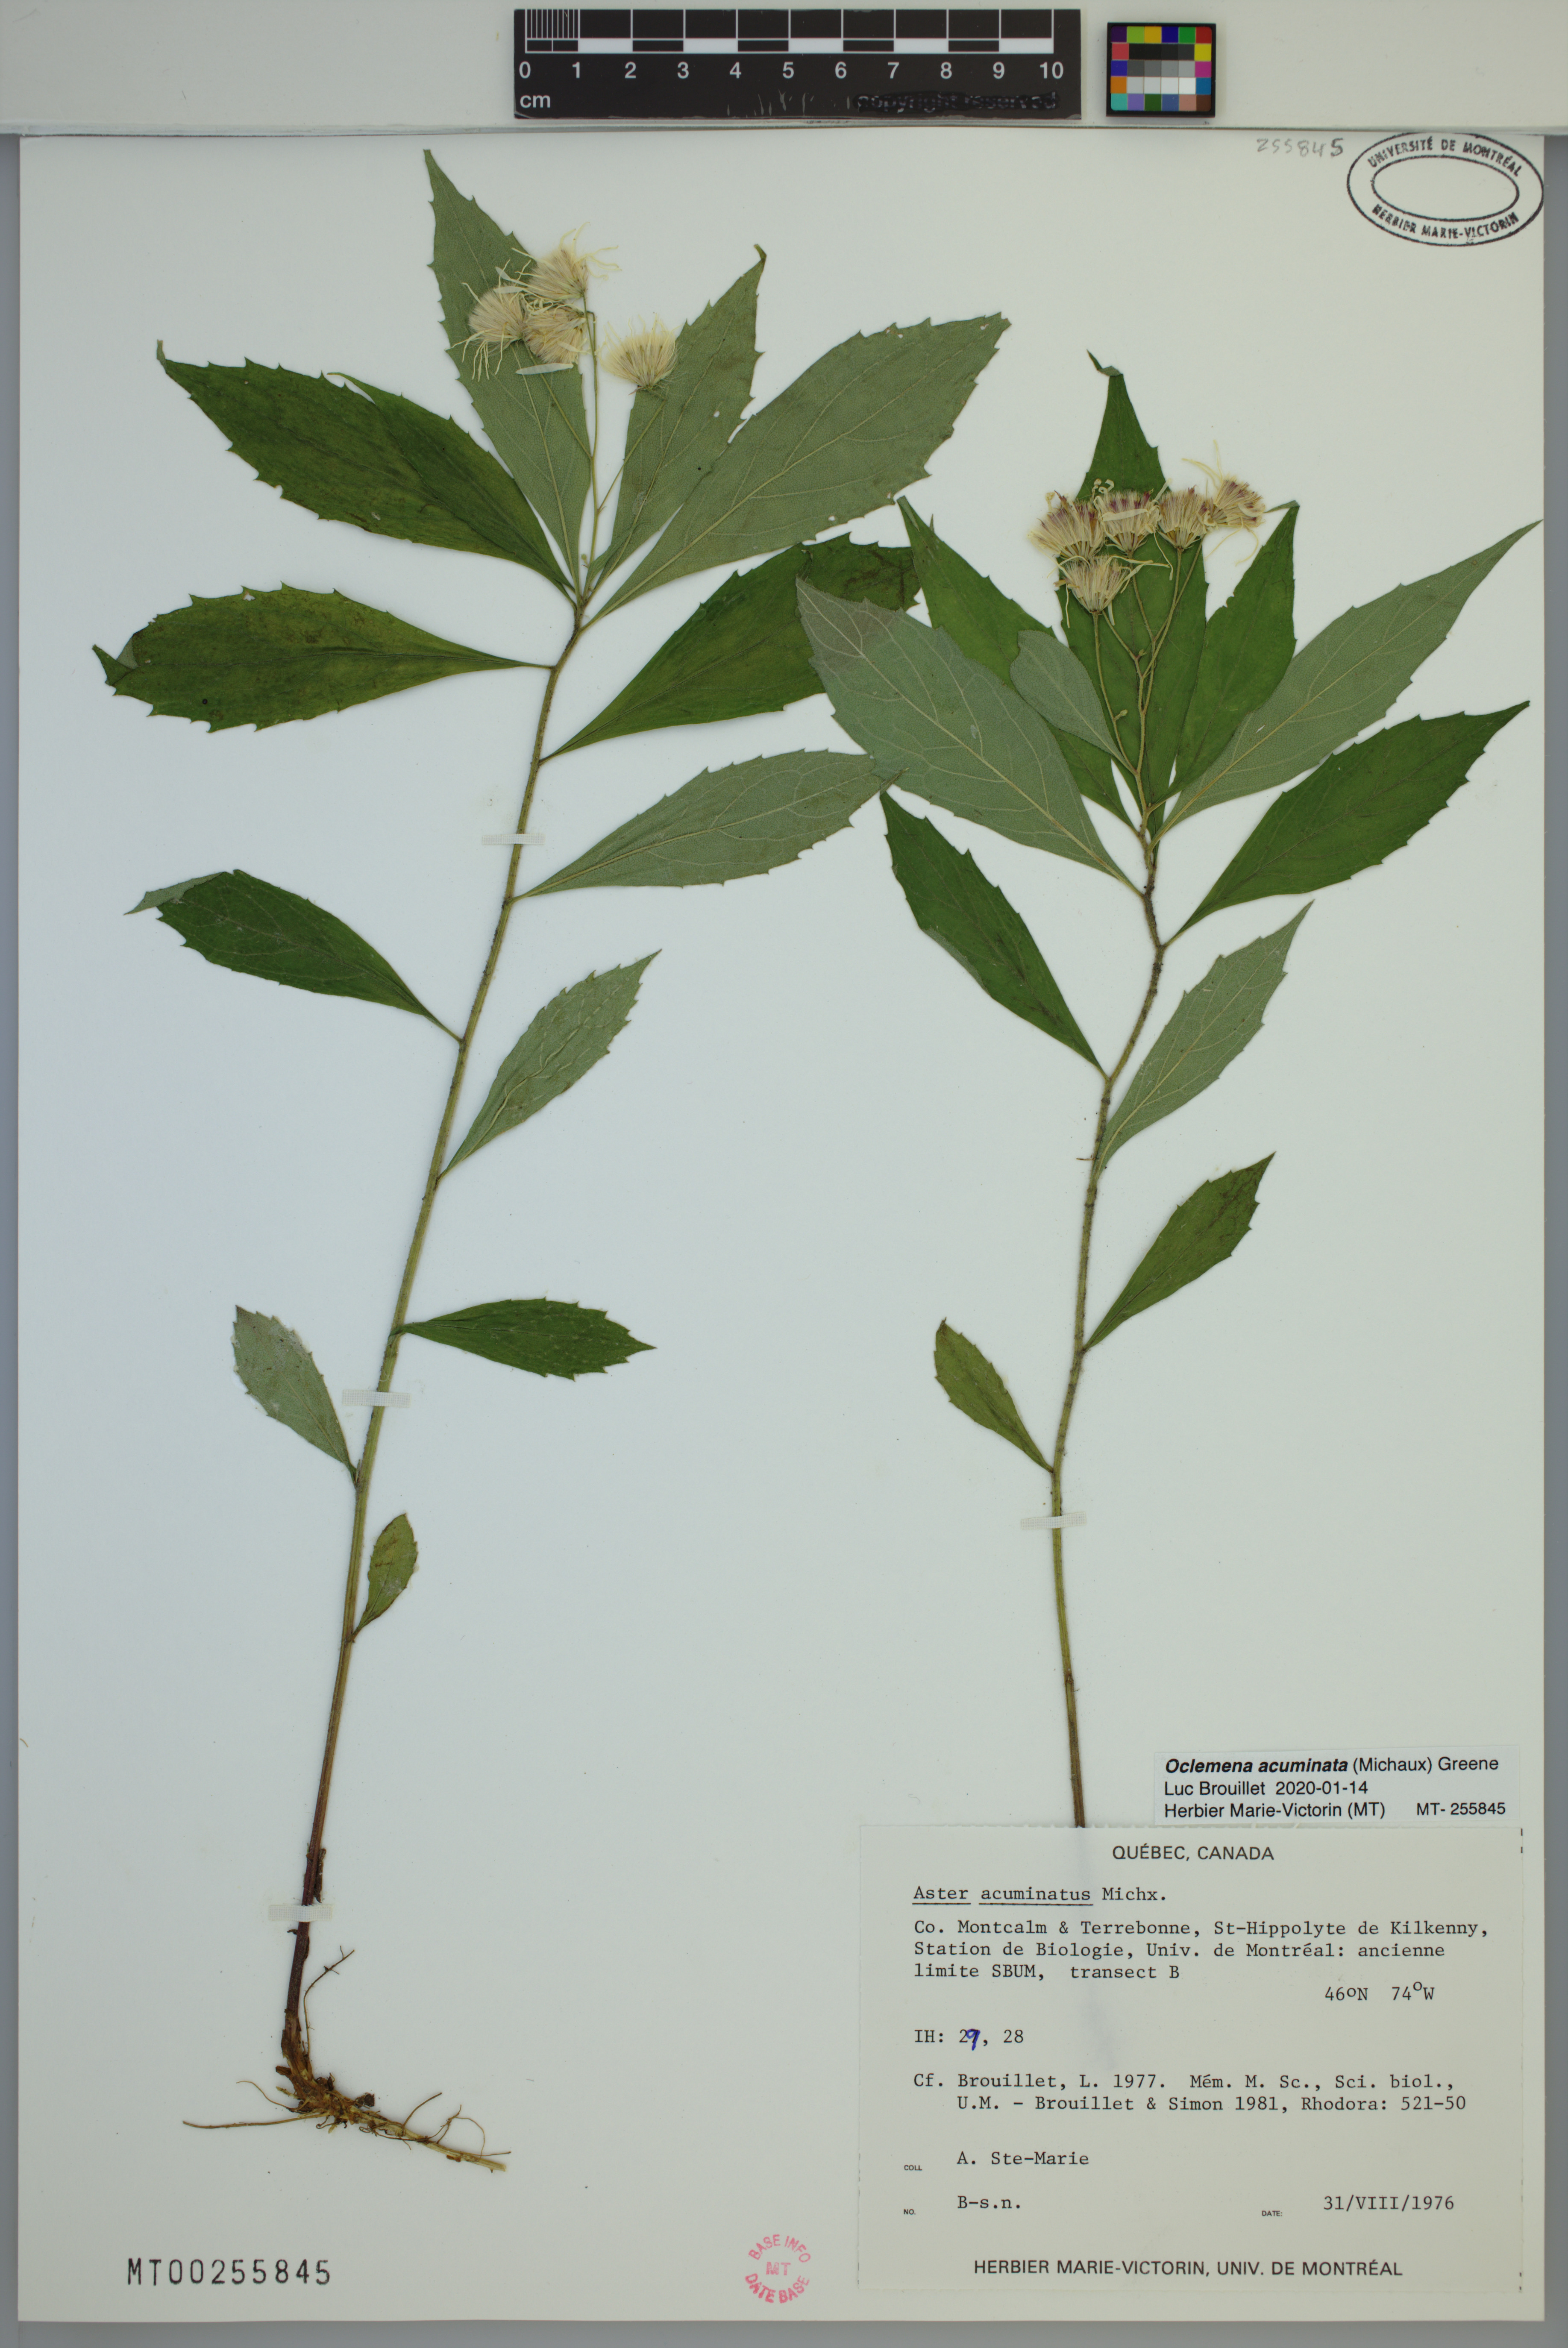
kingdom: Plantae
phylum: Tracheophyta
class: Magnoliopsida
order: Asterales
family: Asteraceae
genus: Oclemena
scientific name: Oclemena acuminata
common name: Mountain aster
